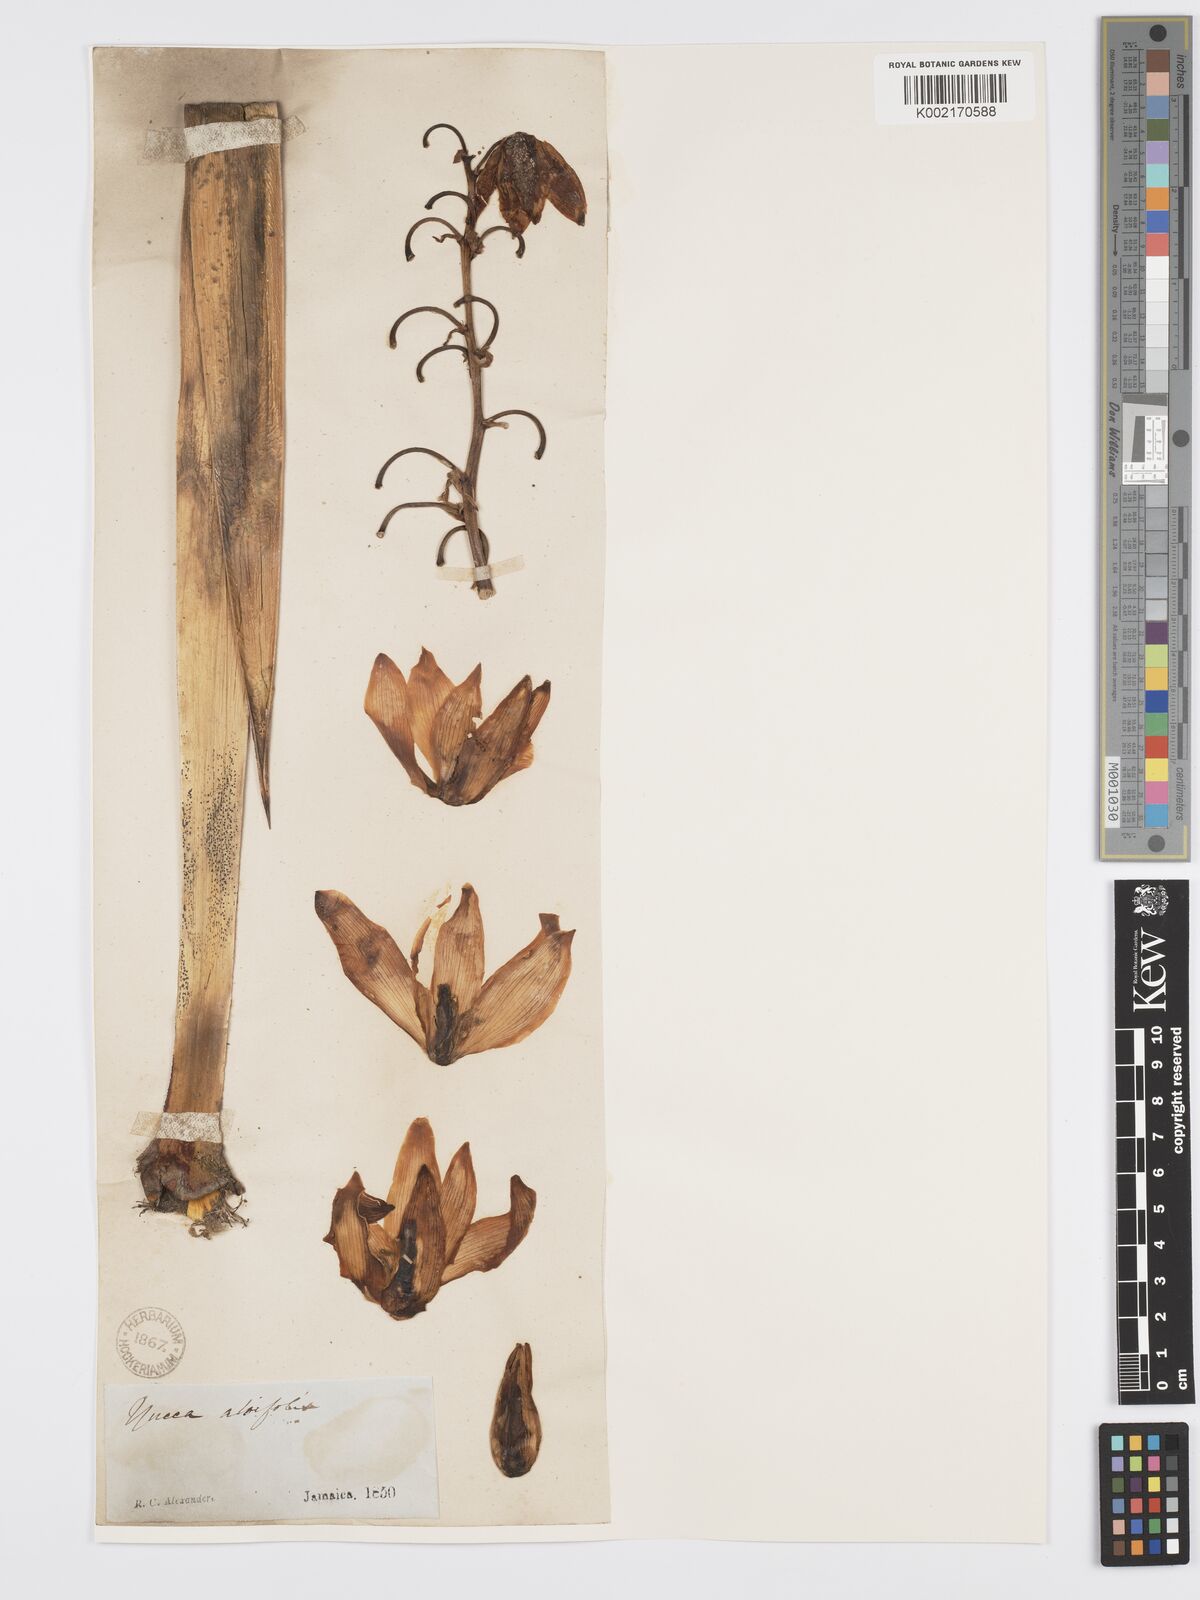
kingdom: Plantae
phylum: Tracheophyta
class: Liliopsida
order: Asparagales
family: Asparagaceae
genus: Yucca
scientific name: Yucca aloifolia
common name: Aloe yucca
